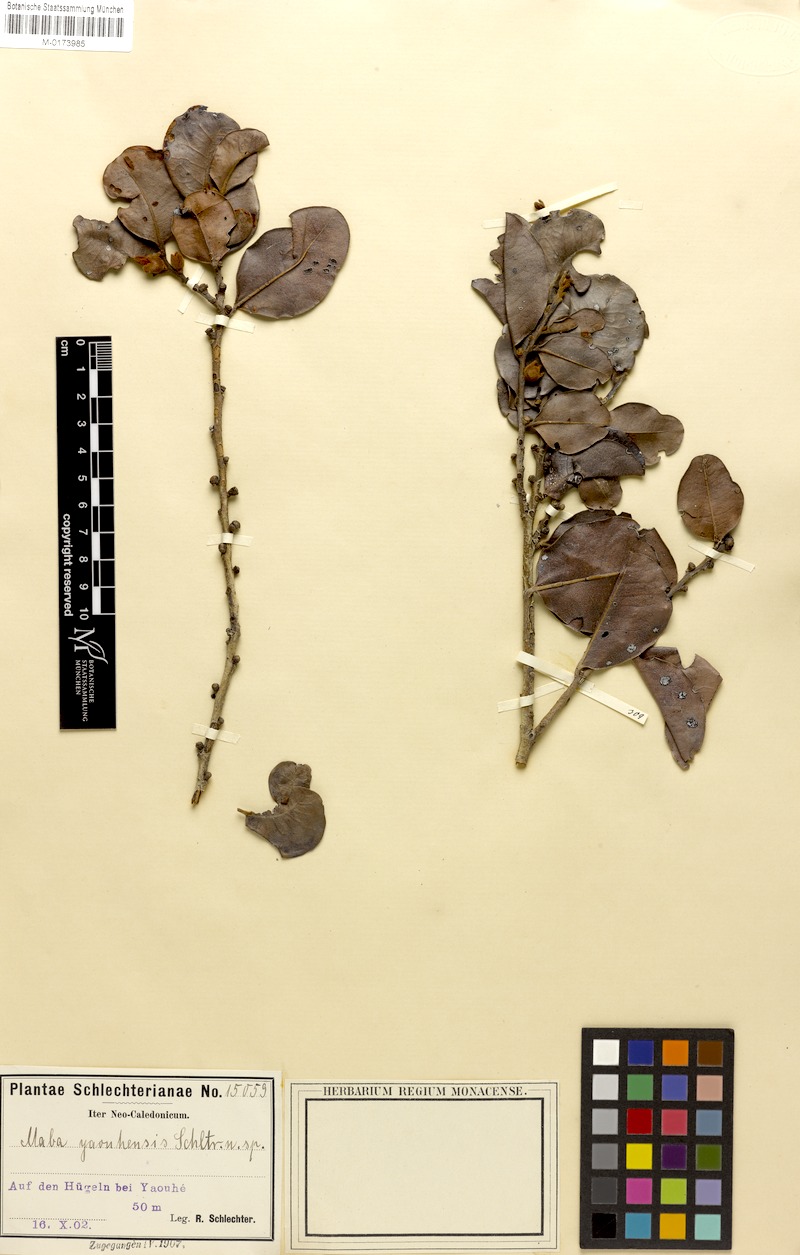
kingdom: Plantae
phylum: Tracheophyta
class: Magnoliopsida
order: Ericales
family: Ebenaceae
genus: Diospyros
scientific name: Diospyros yaouhensis
